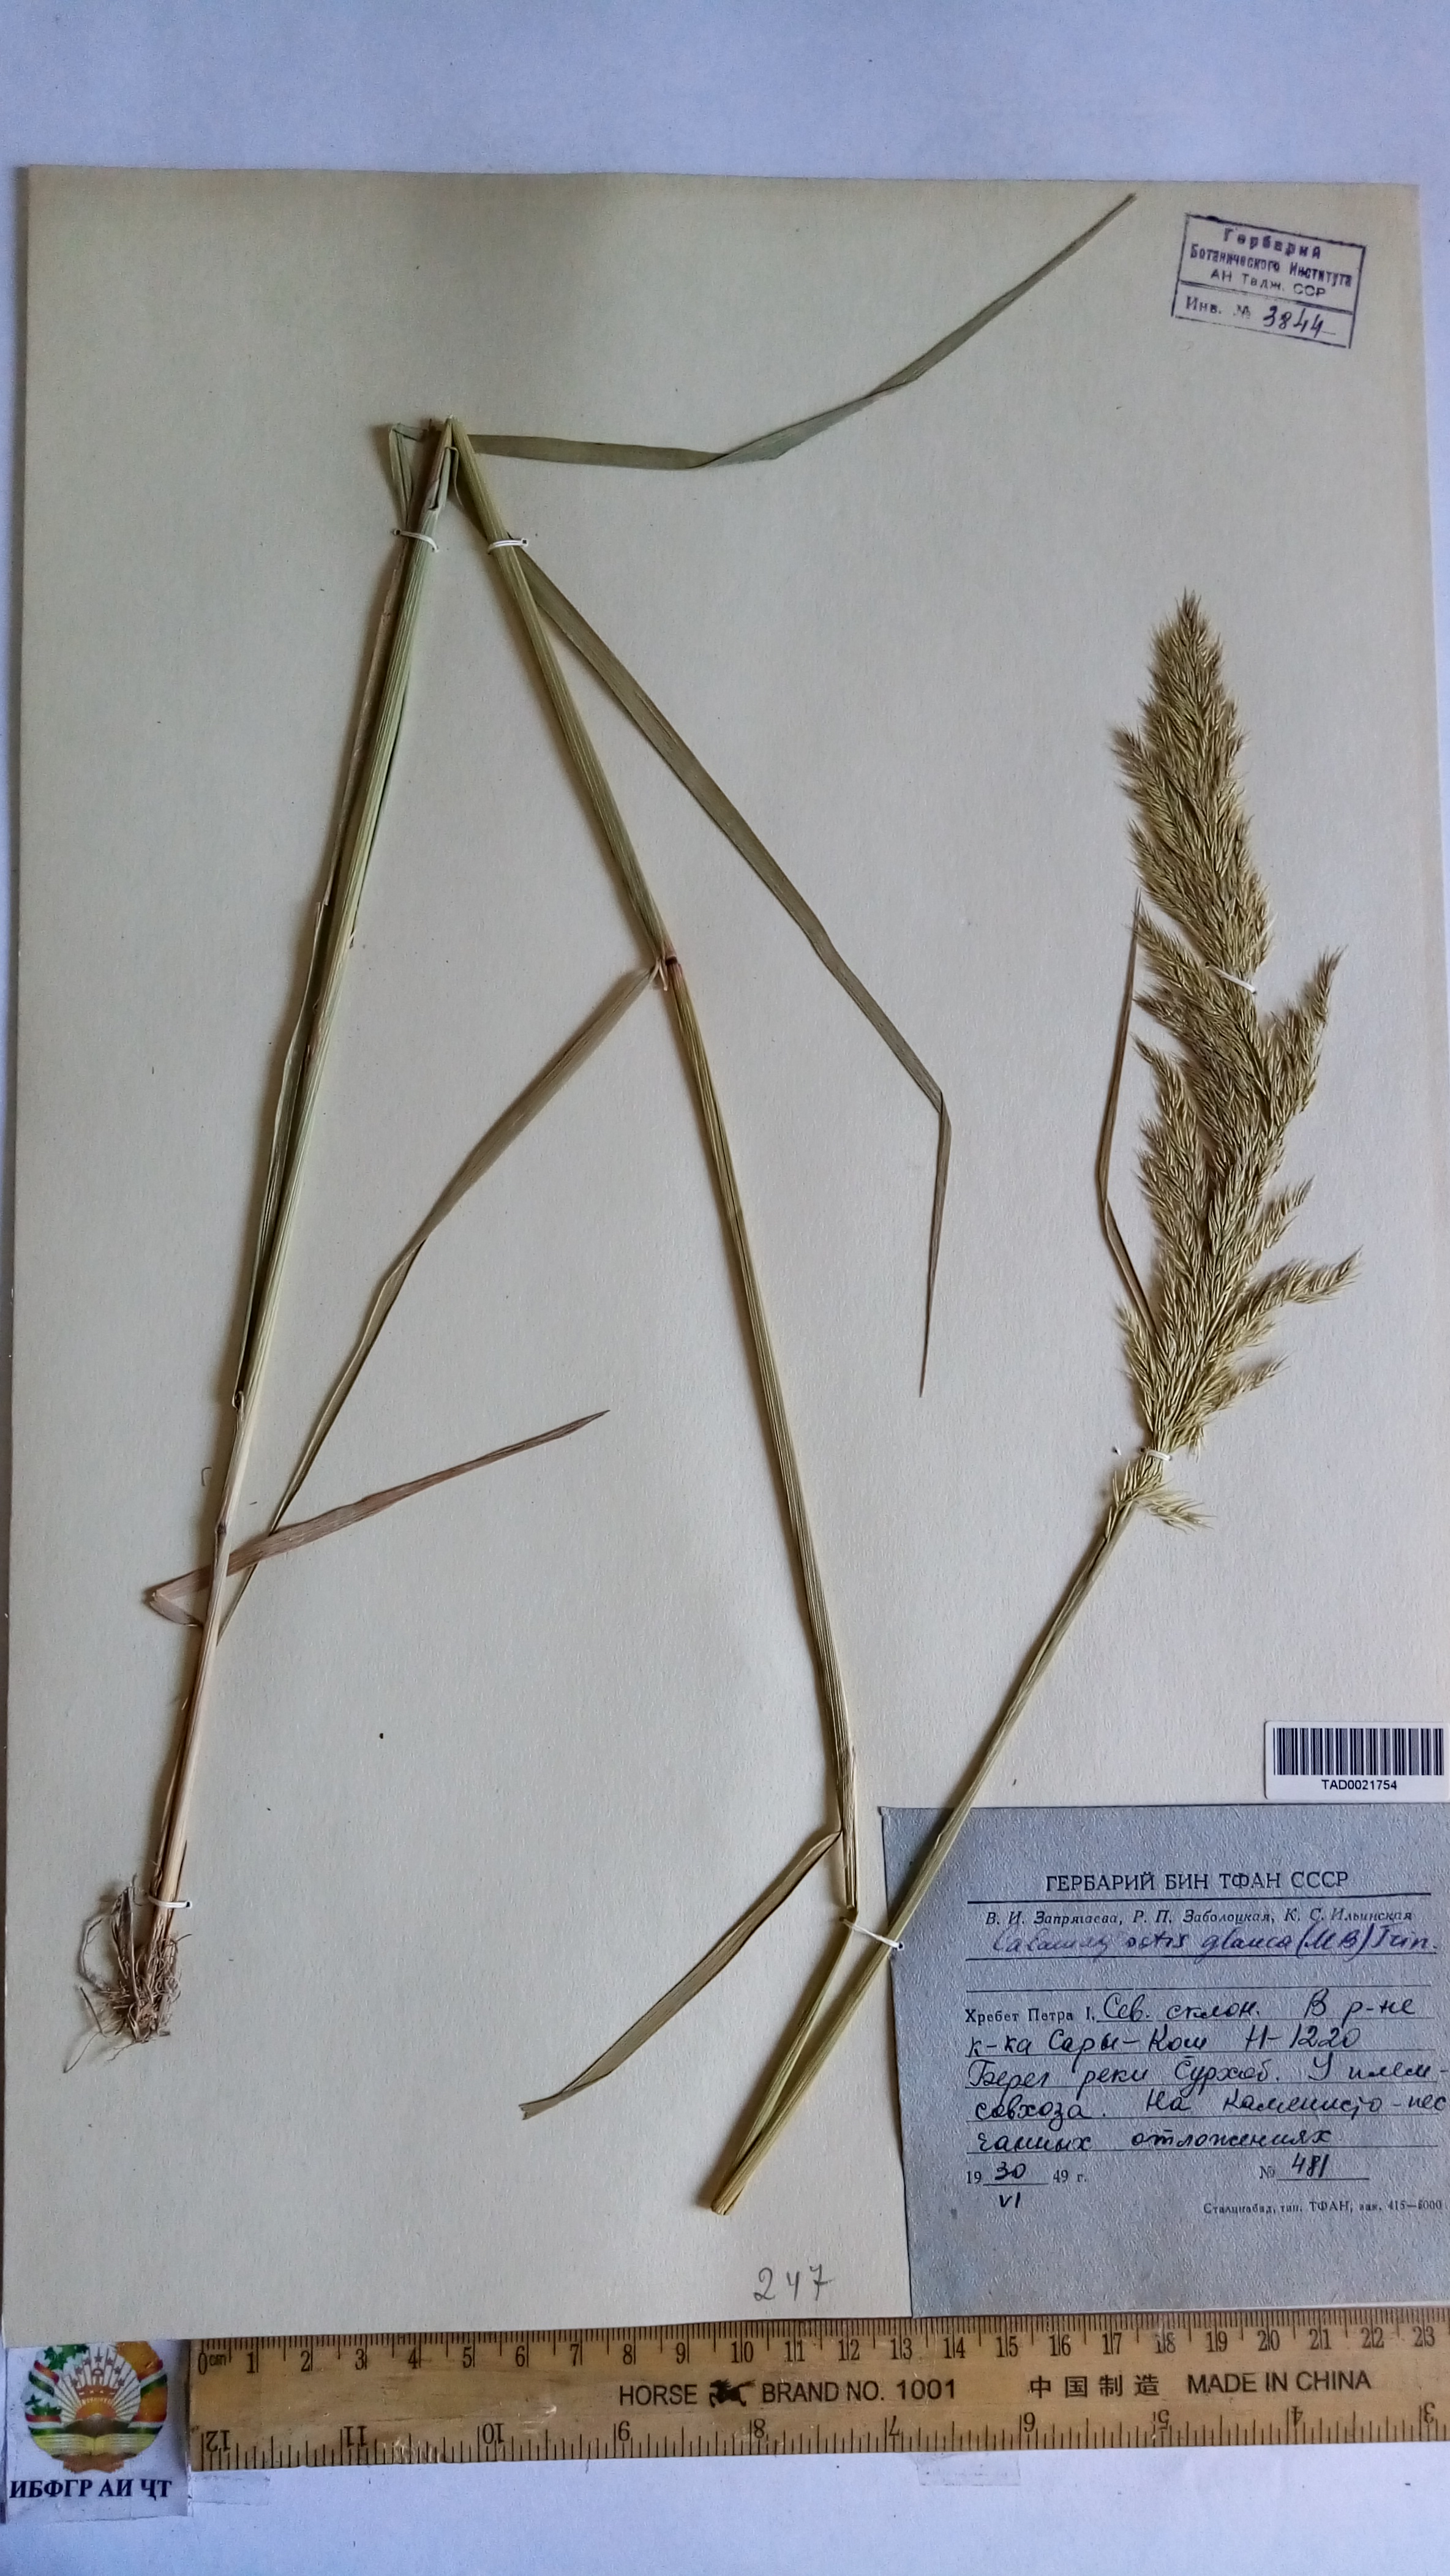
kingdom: Plantae
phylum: Tracheophyta
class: Liliopsida
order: Poales
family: Poaceae
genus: Calamagrostis
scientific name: Calamagrostis pseudophragmites
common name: Coastal small-reed
